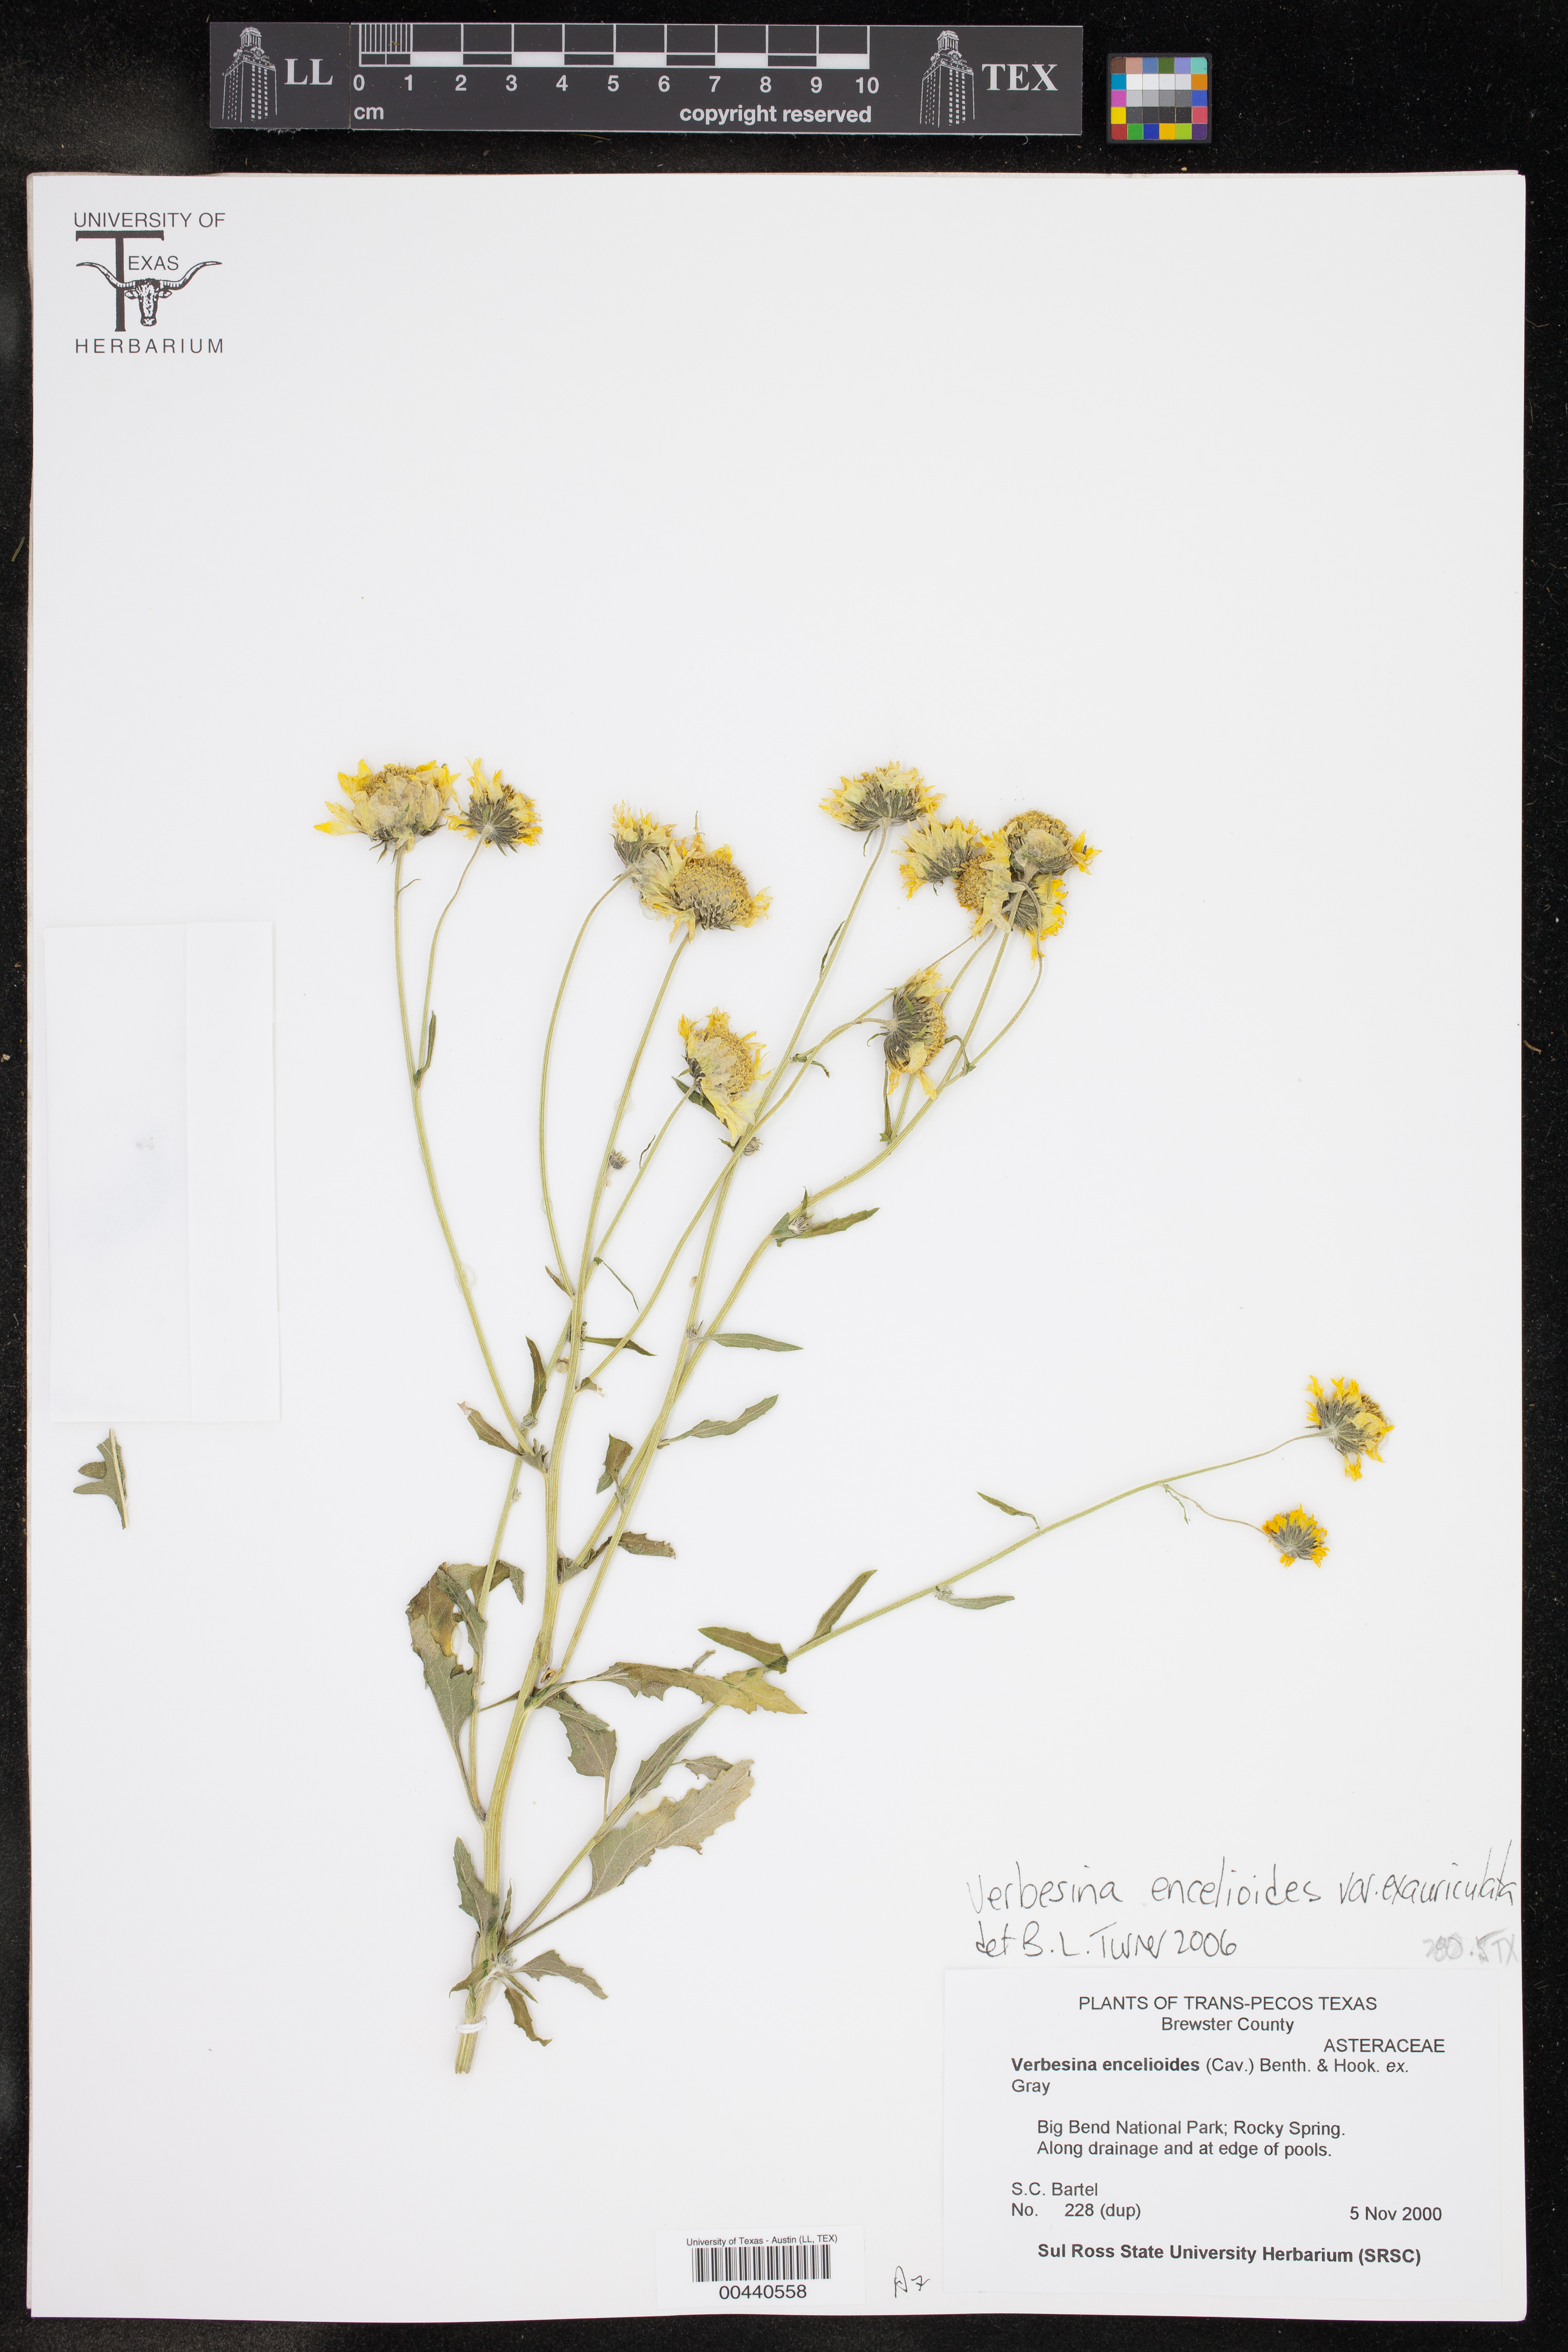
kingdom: Plantae
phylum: Tracheophyta
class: Magnoliopsida
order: Asterales
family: Asteraceae
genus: Verbesina
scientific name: Verbesina encelioides
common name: Golden crownbeard
